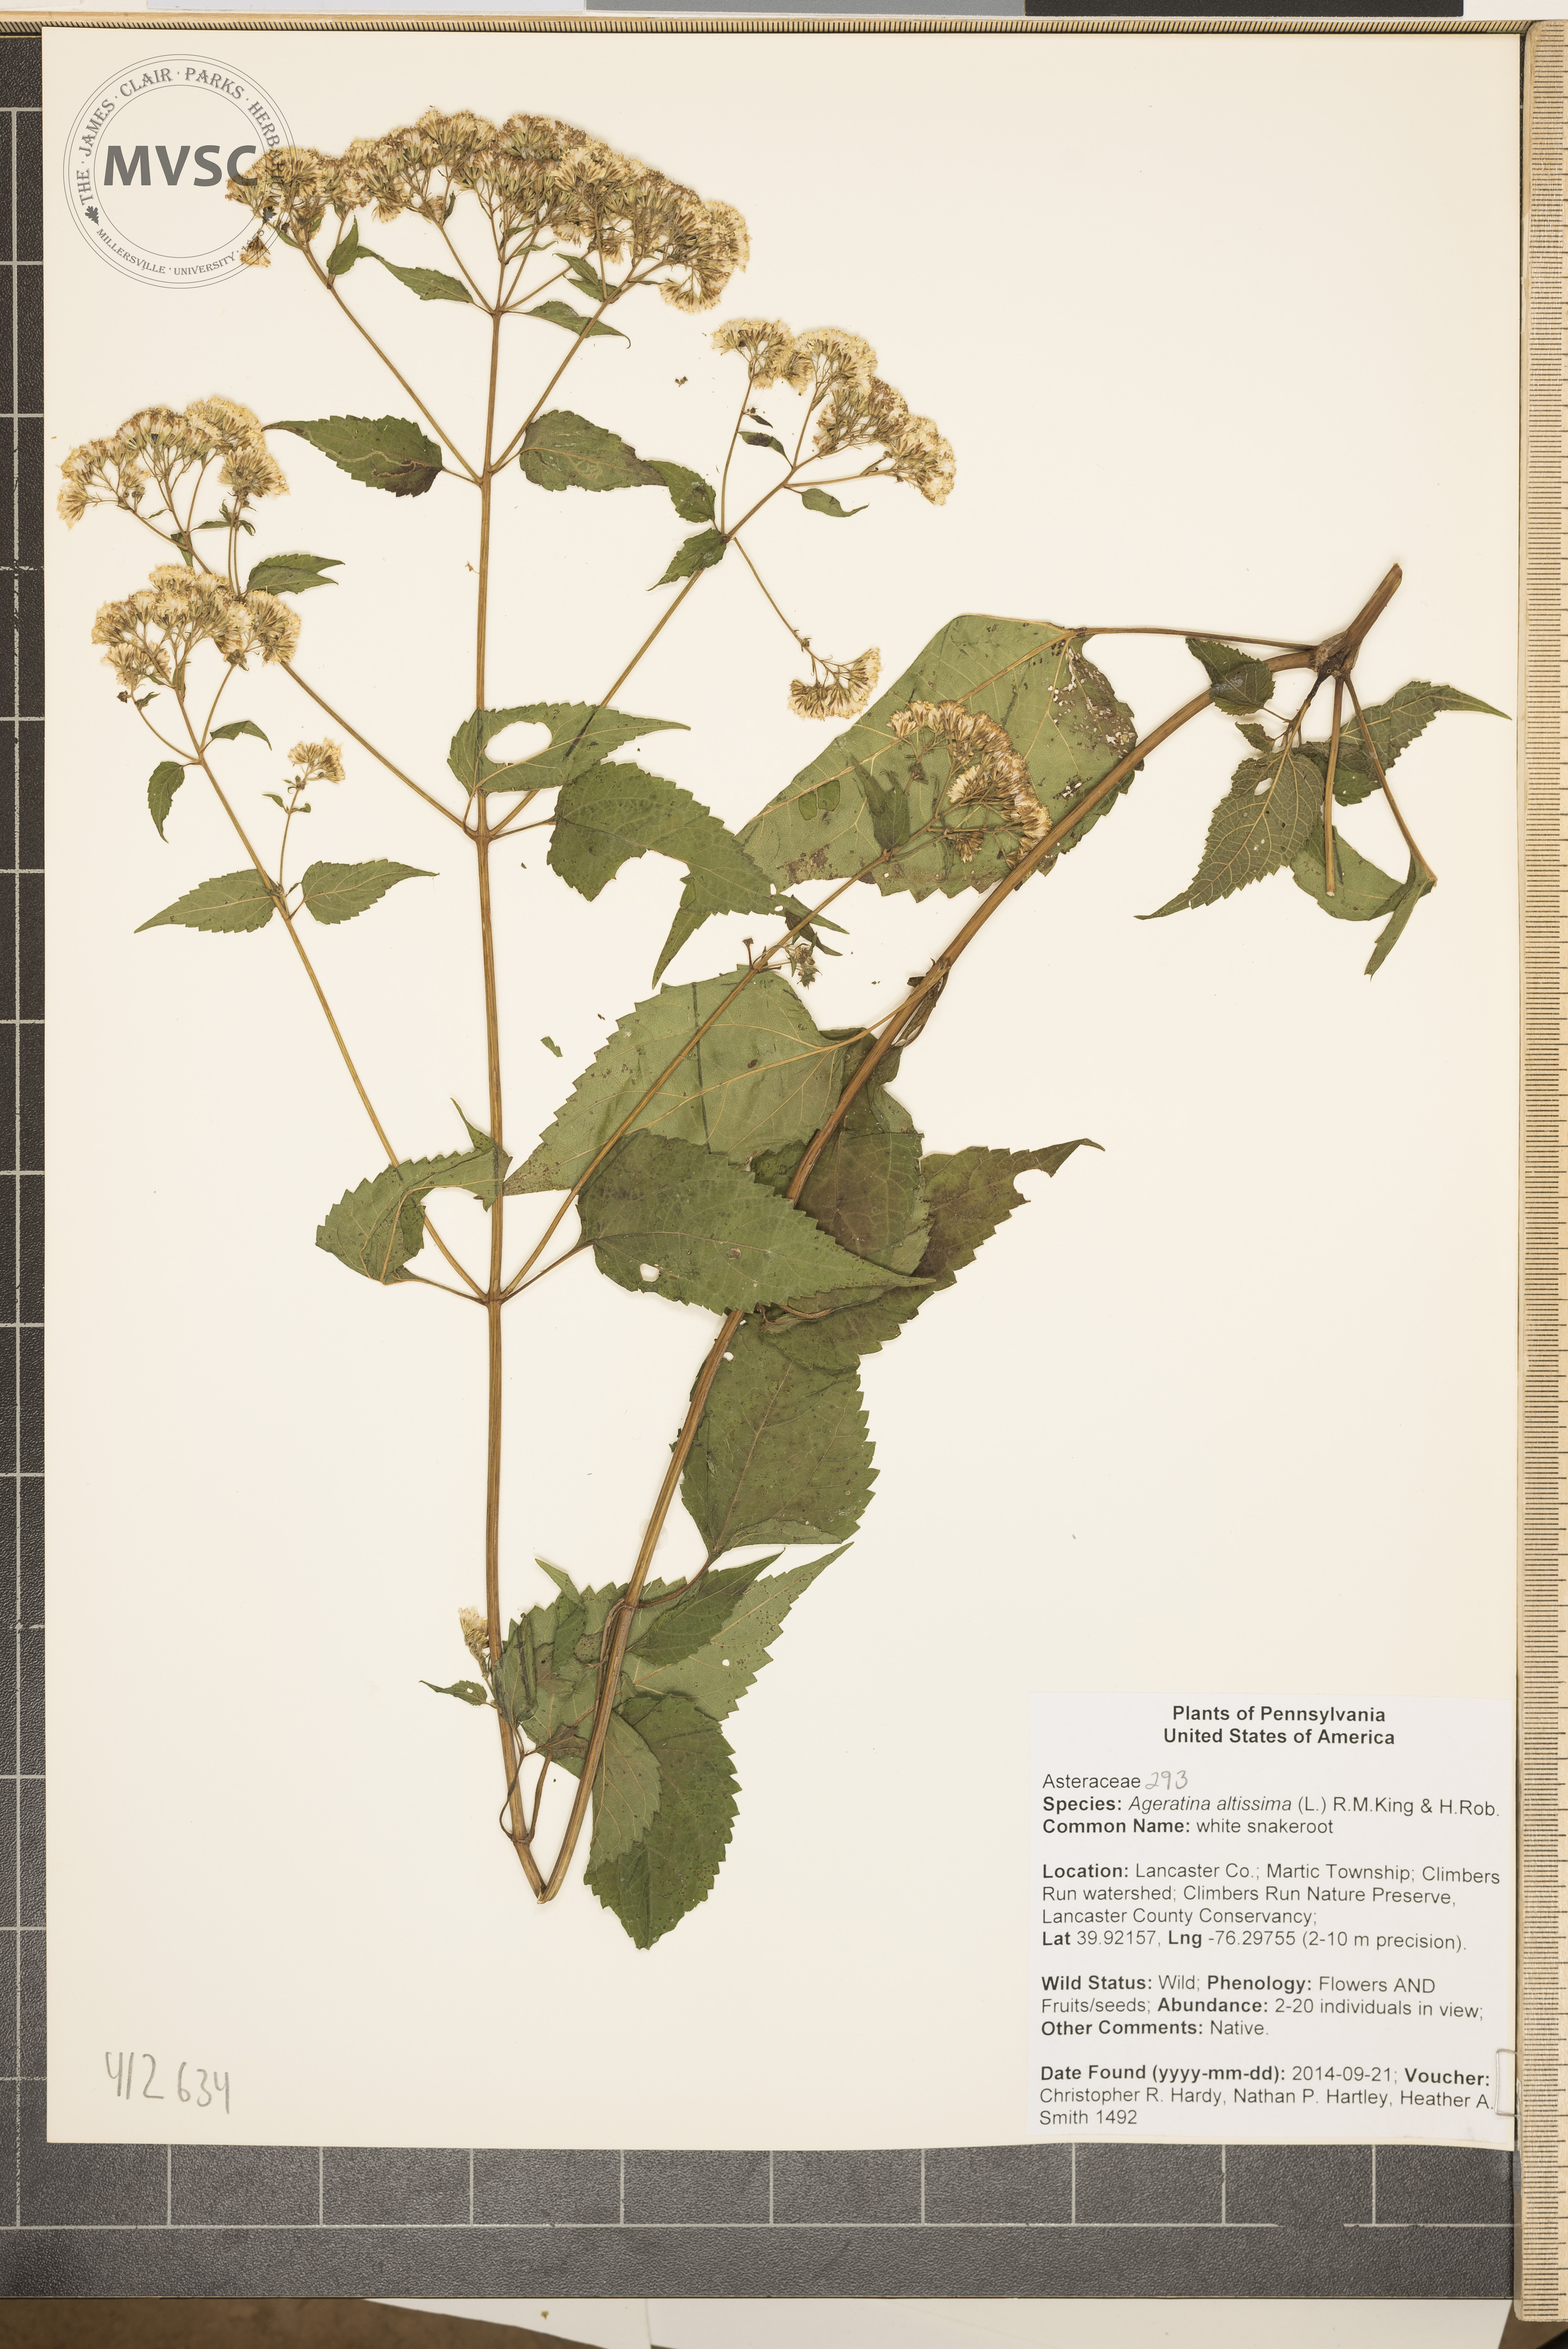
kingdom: Plantae
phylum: Tracheophyta
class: Magnoliopsida
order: Asterales
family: Asteraceae
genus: Ageratina
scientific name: Ageratina altissima
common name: white snakeroot
